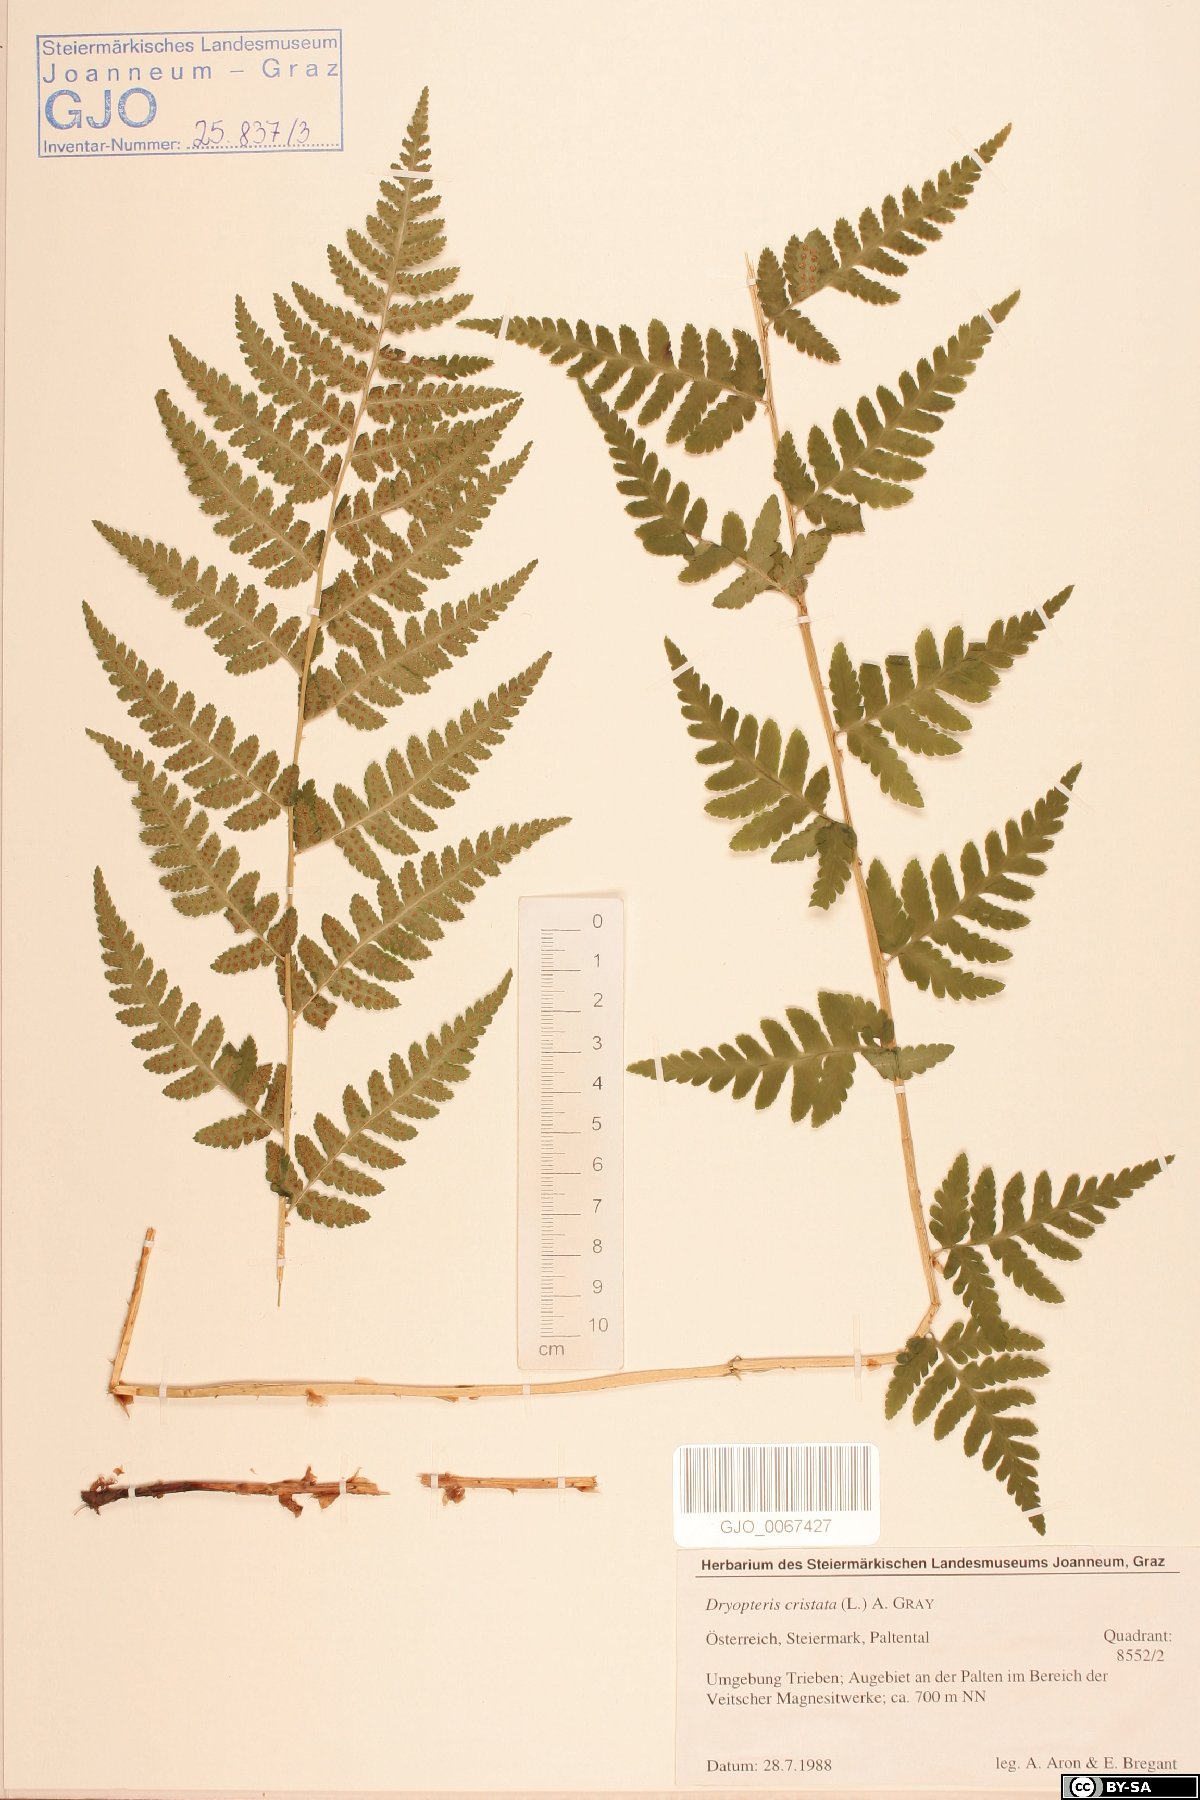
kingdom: Plantae
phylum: Tracheophyta
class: Polypodiopsida
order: Polypodiales
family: Dryopteridaceae
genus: Dryopteris
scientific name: Dryopteris cristata
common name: Crested wood fern
